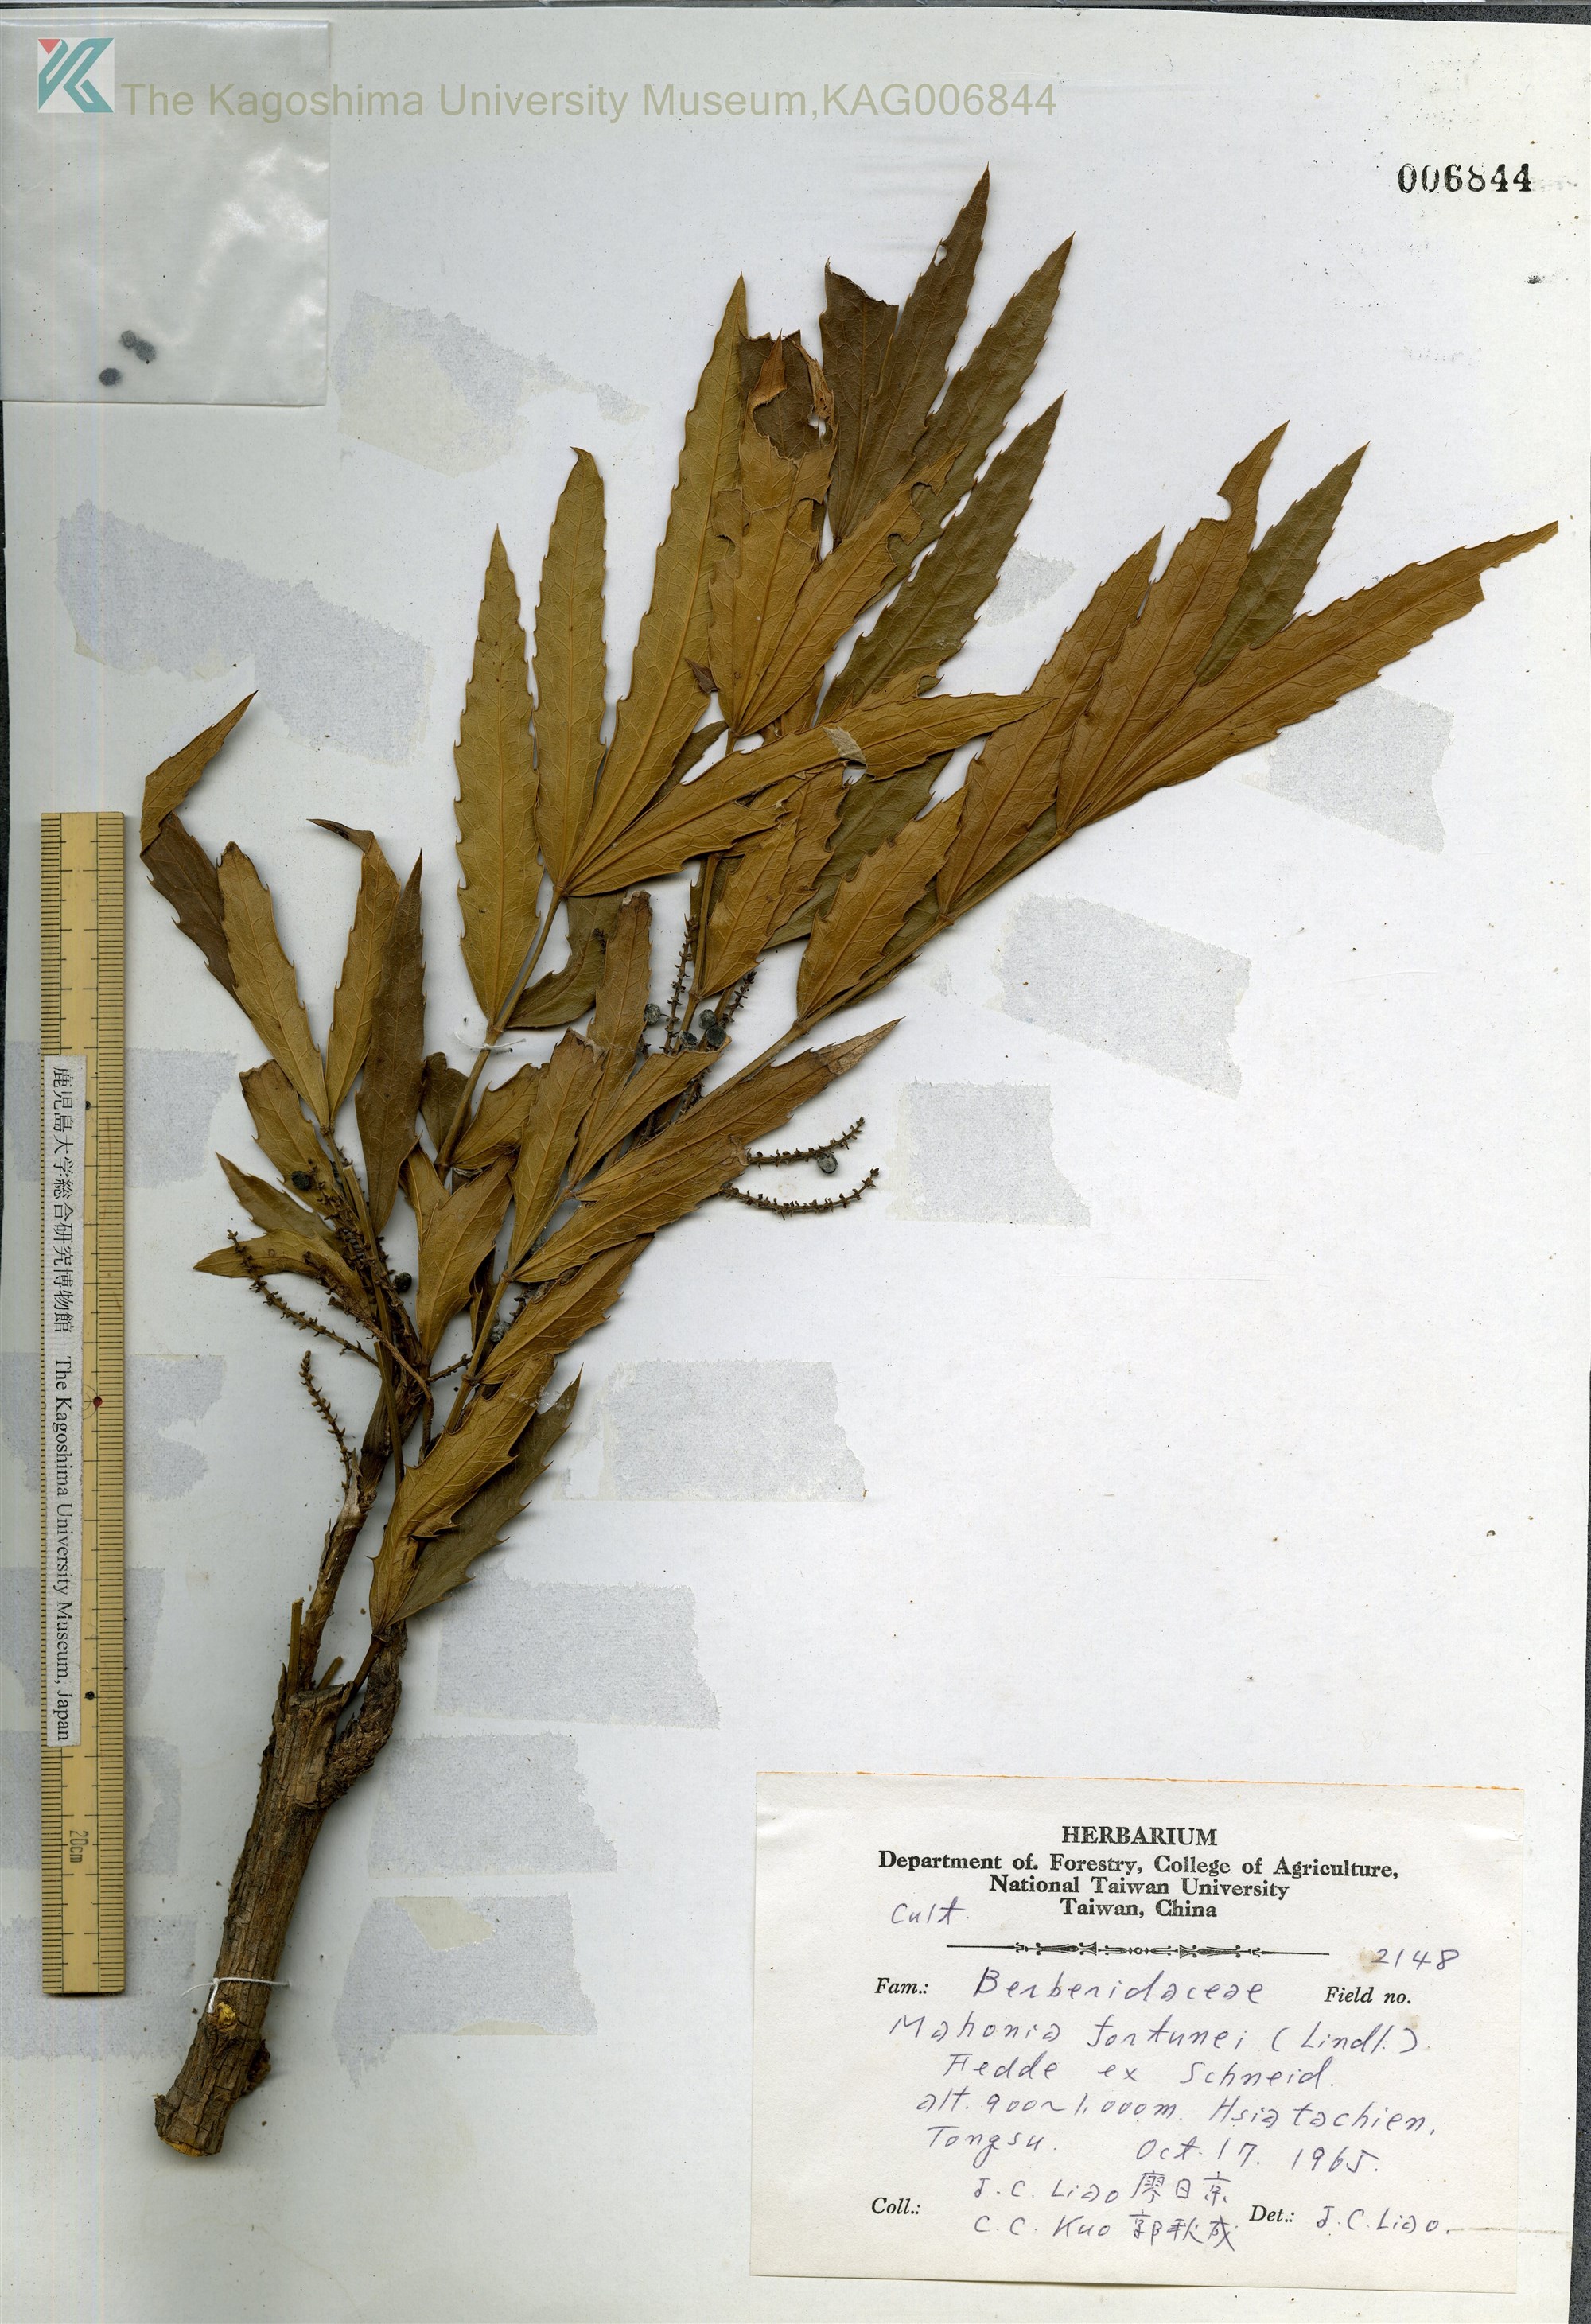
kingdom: Plantae
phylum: Tracheophyta
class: Magnoliopsida
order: Ranunculales
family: Berberidaceae
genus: Mahonia
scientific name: Mahonia fortunei
